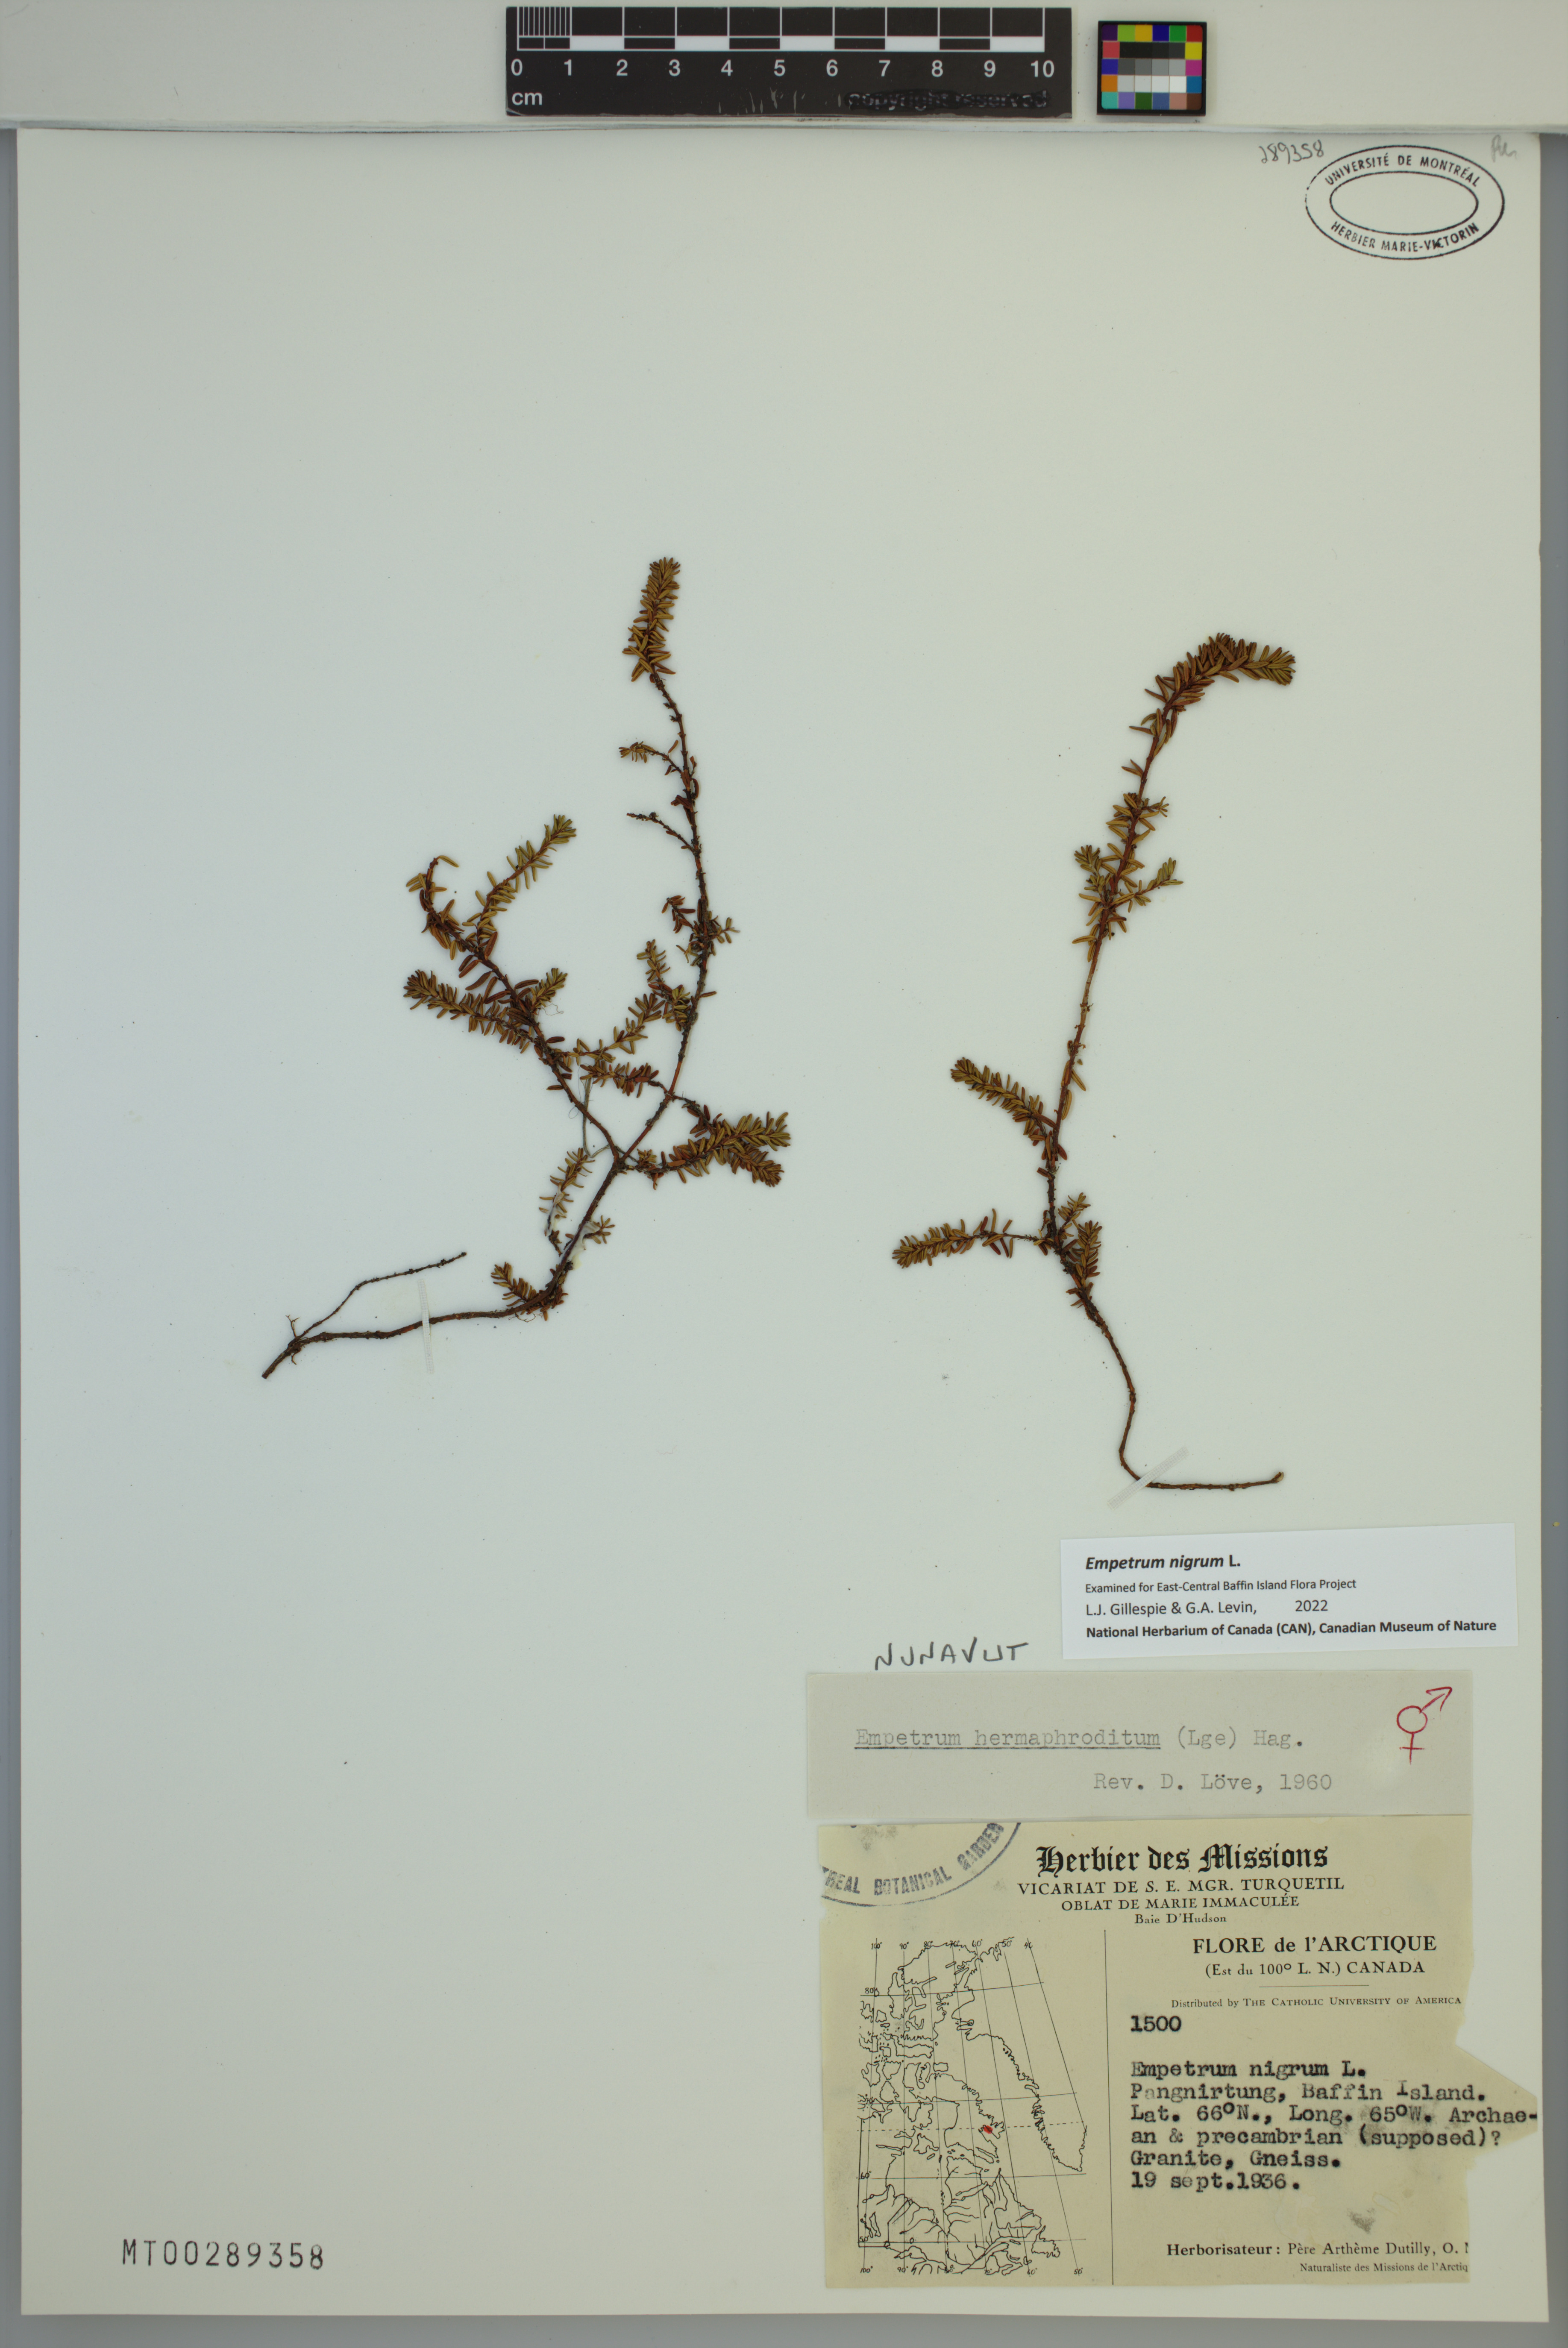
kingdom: Plantae
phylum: Tracheophyta
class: Magnoliopsida
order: Ericales
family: Ericaceae
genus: Empetrum
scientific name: Empetrum nigrum
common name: Black crowberry
